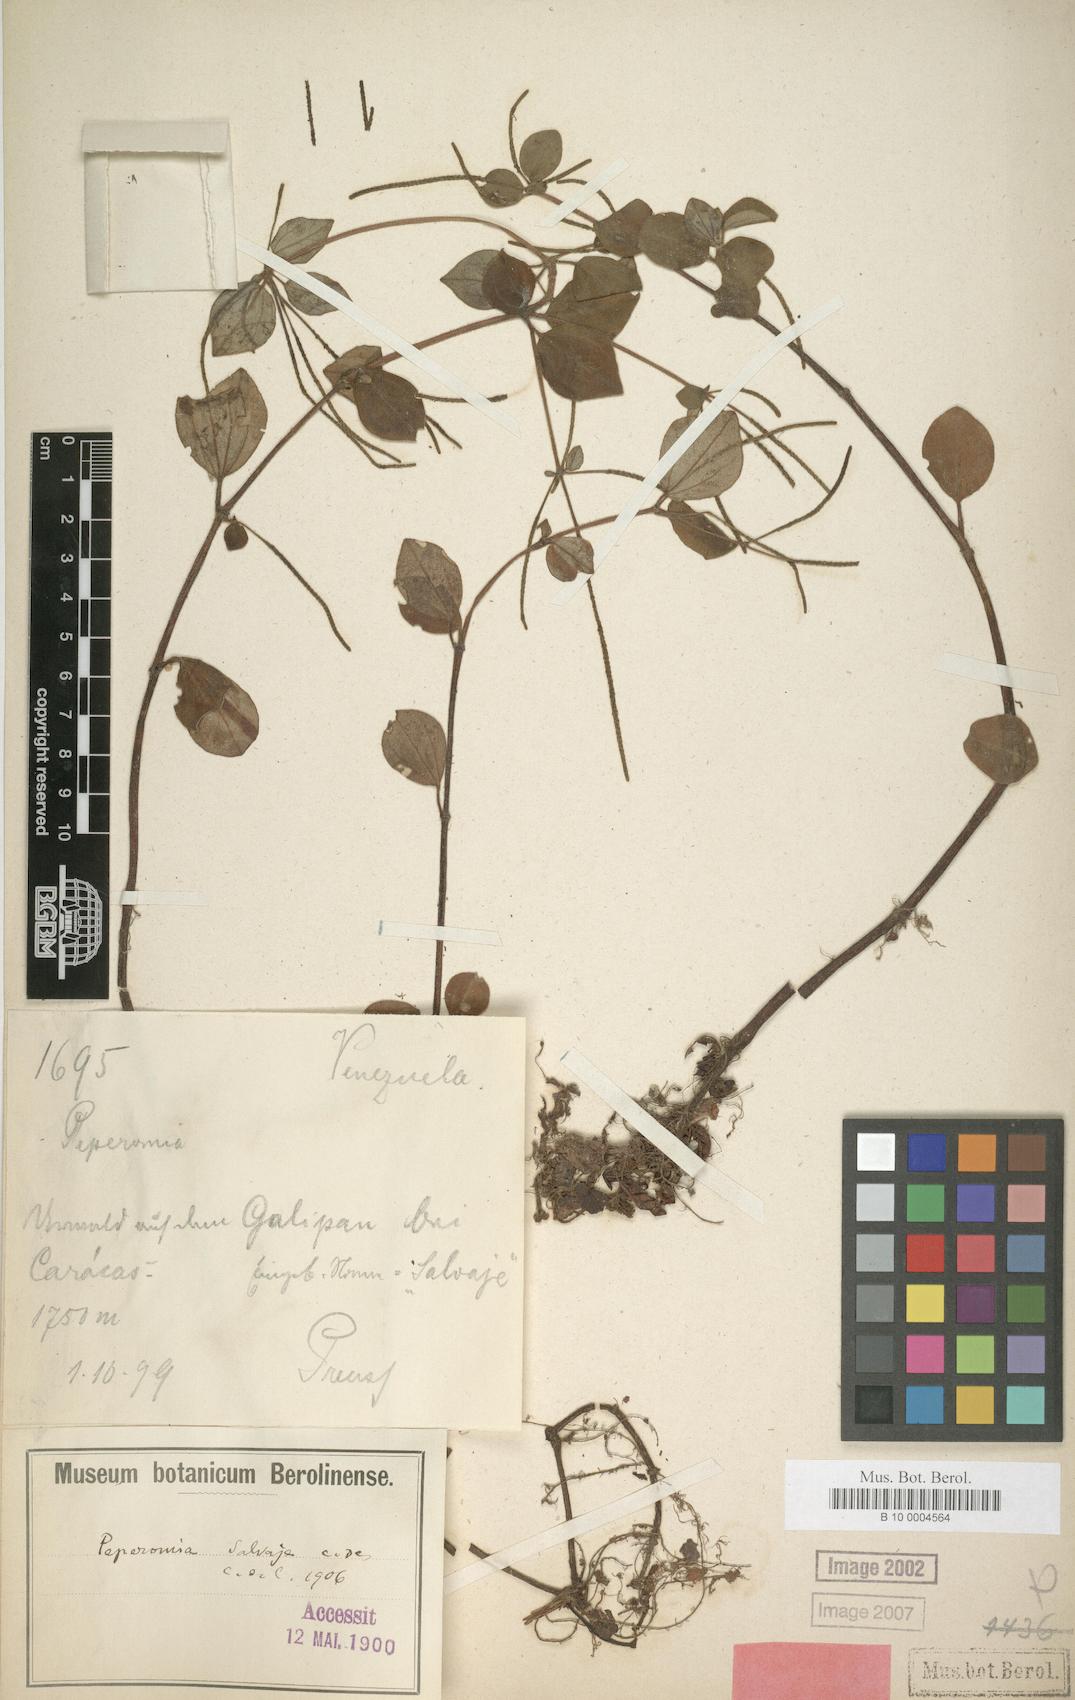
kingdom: Plantae
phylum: Tracheophyta
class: Magnoliopsida
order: Piperales
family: Piperaceae
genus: Peperomia
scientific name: Peperomia blanda
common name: Arid-land peperomia
